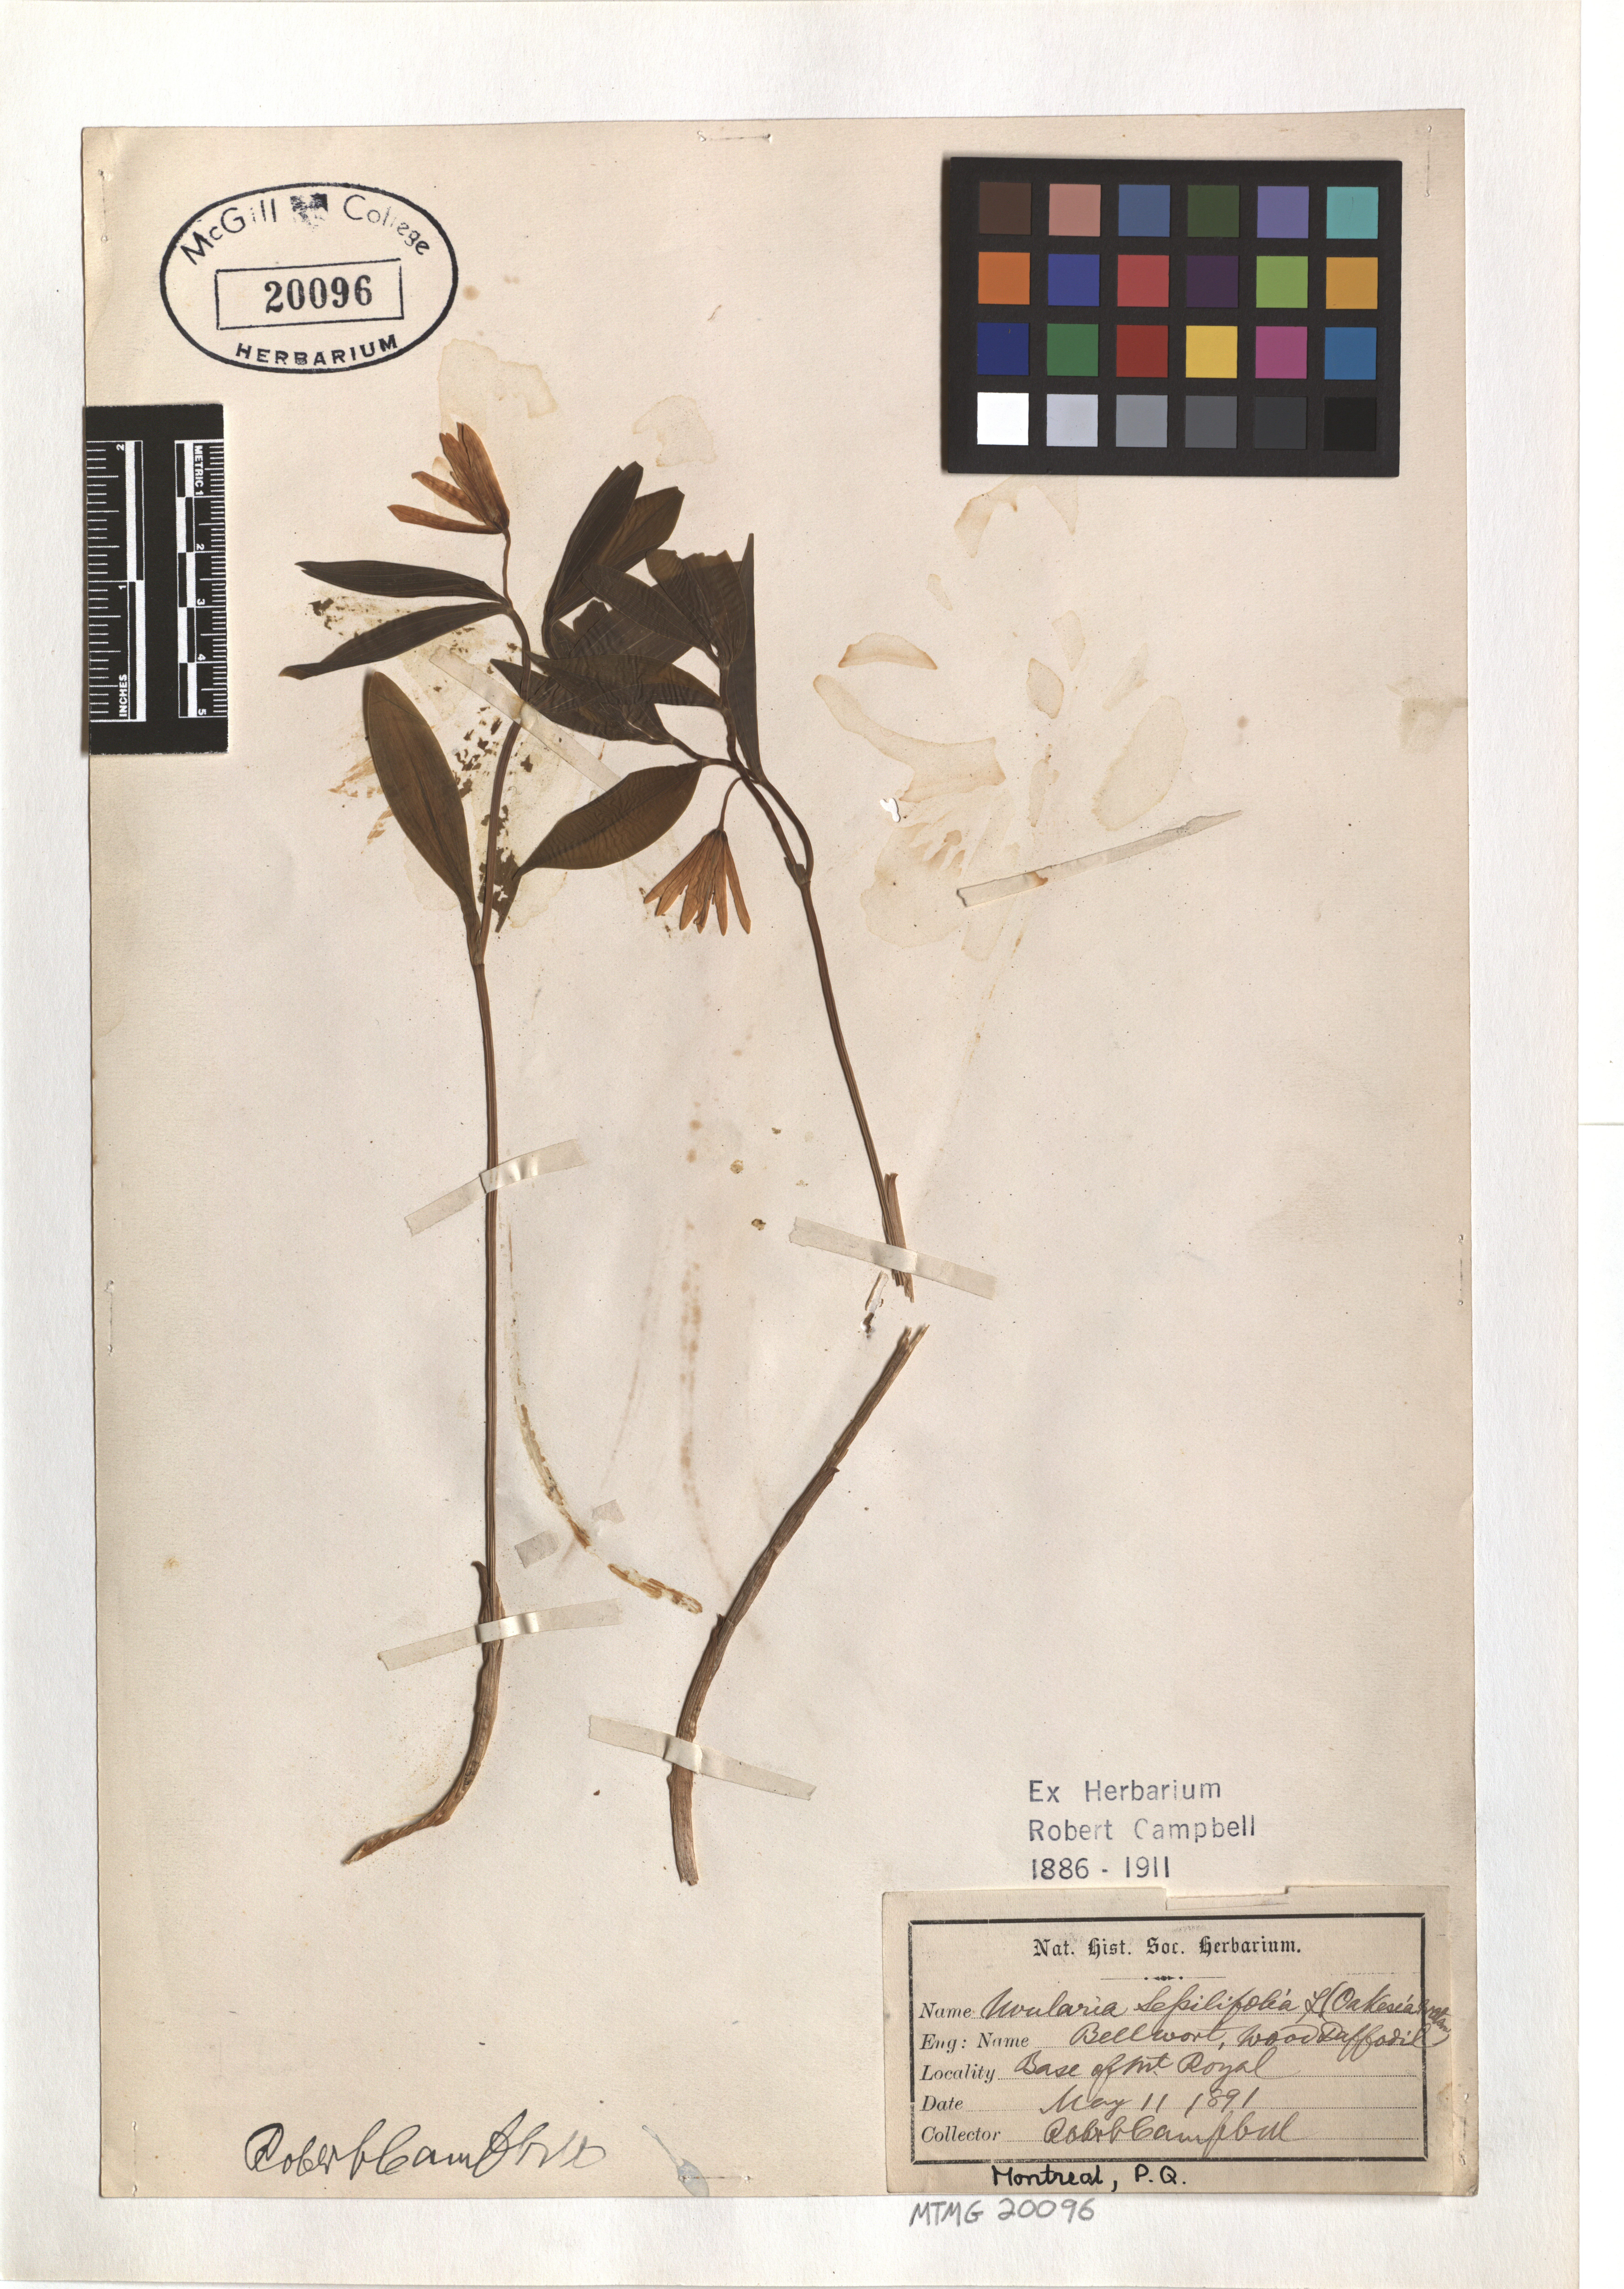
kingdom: Plantae
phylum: Tracheophyta
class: Liliopsida
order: Liliales
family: Colchicaceae
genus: Uvularia
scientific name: Uvularia sessilifolia
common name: Straw-lily
